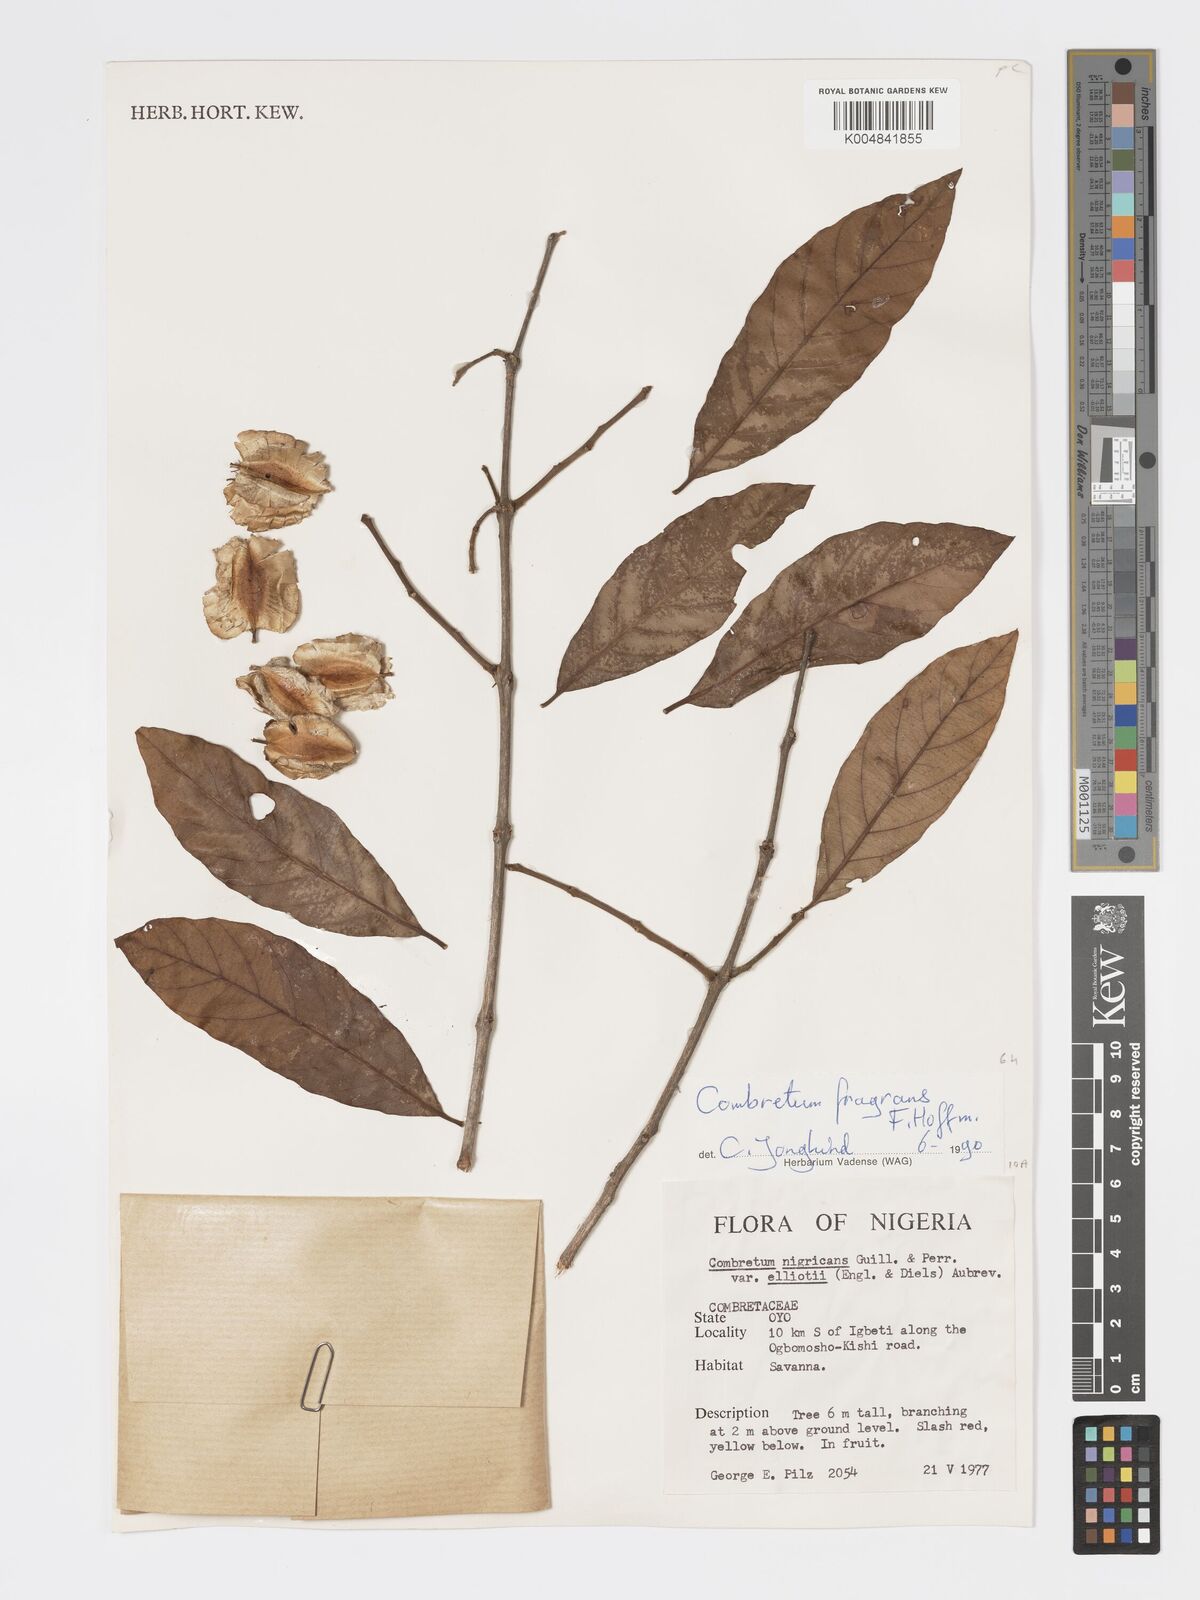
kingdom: Plantae
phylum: Tracheophyta
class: Magnoliopsida
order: Myrtales
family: Combretaceae
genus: Combretum
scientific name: Combretum adenogonium
